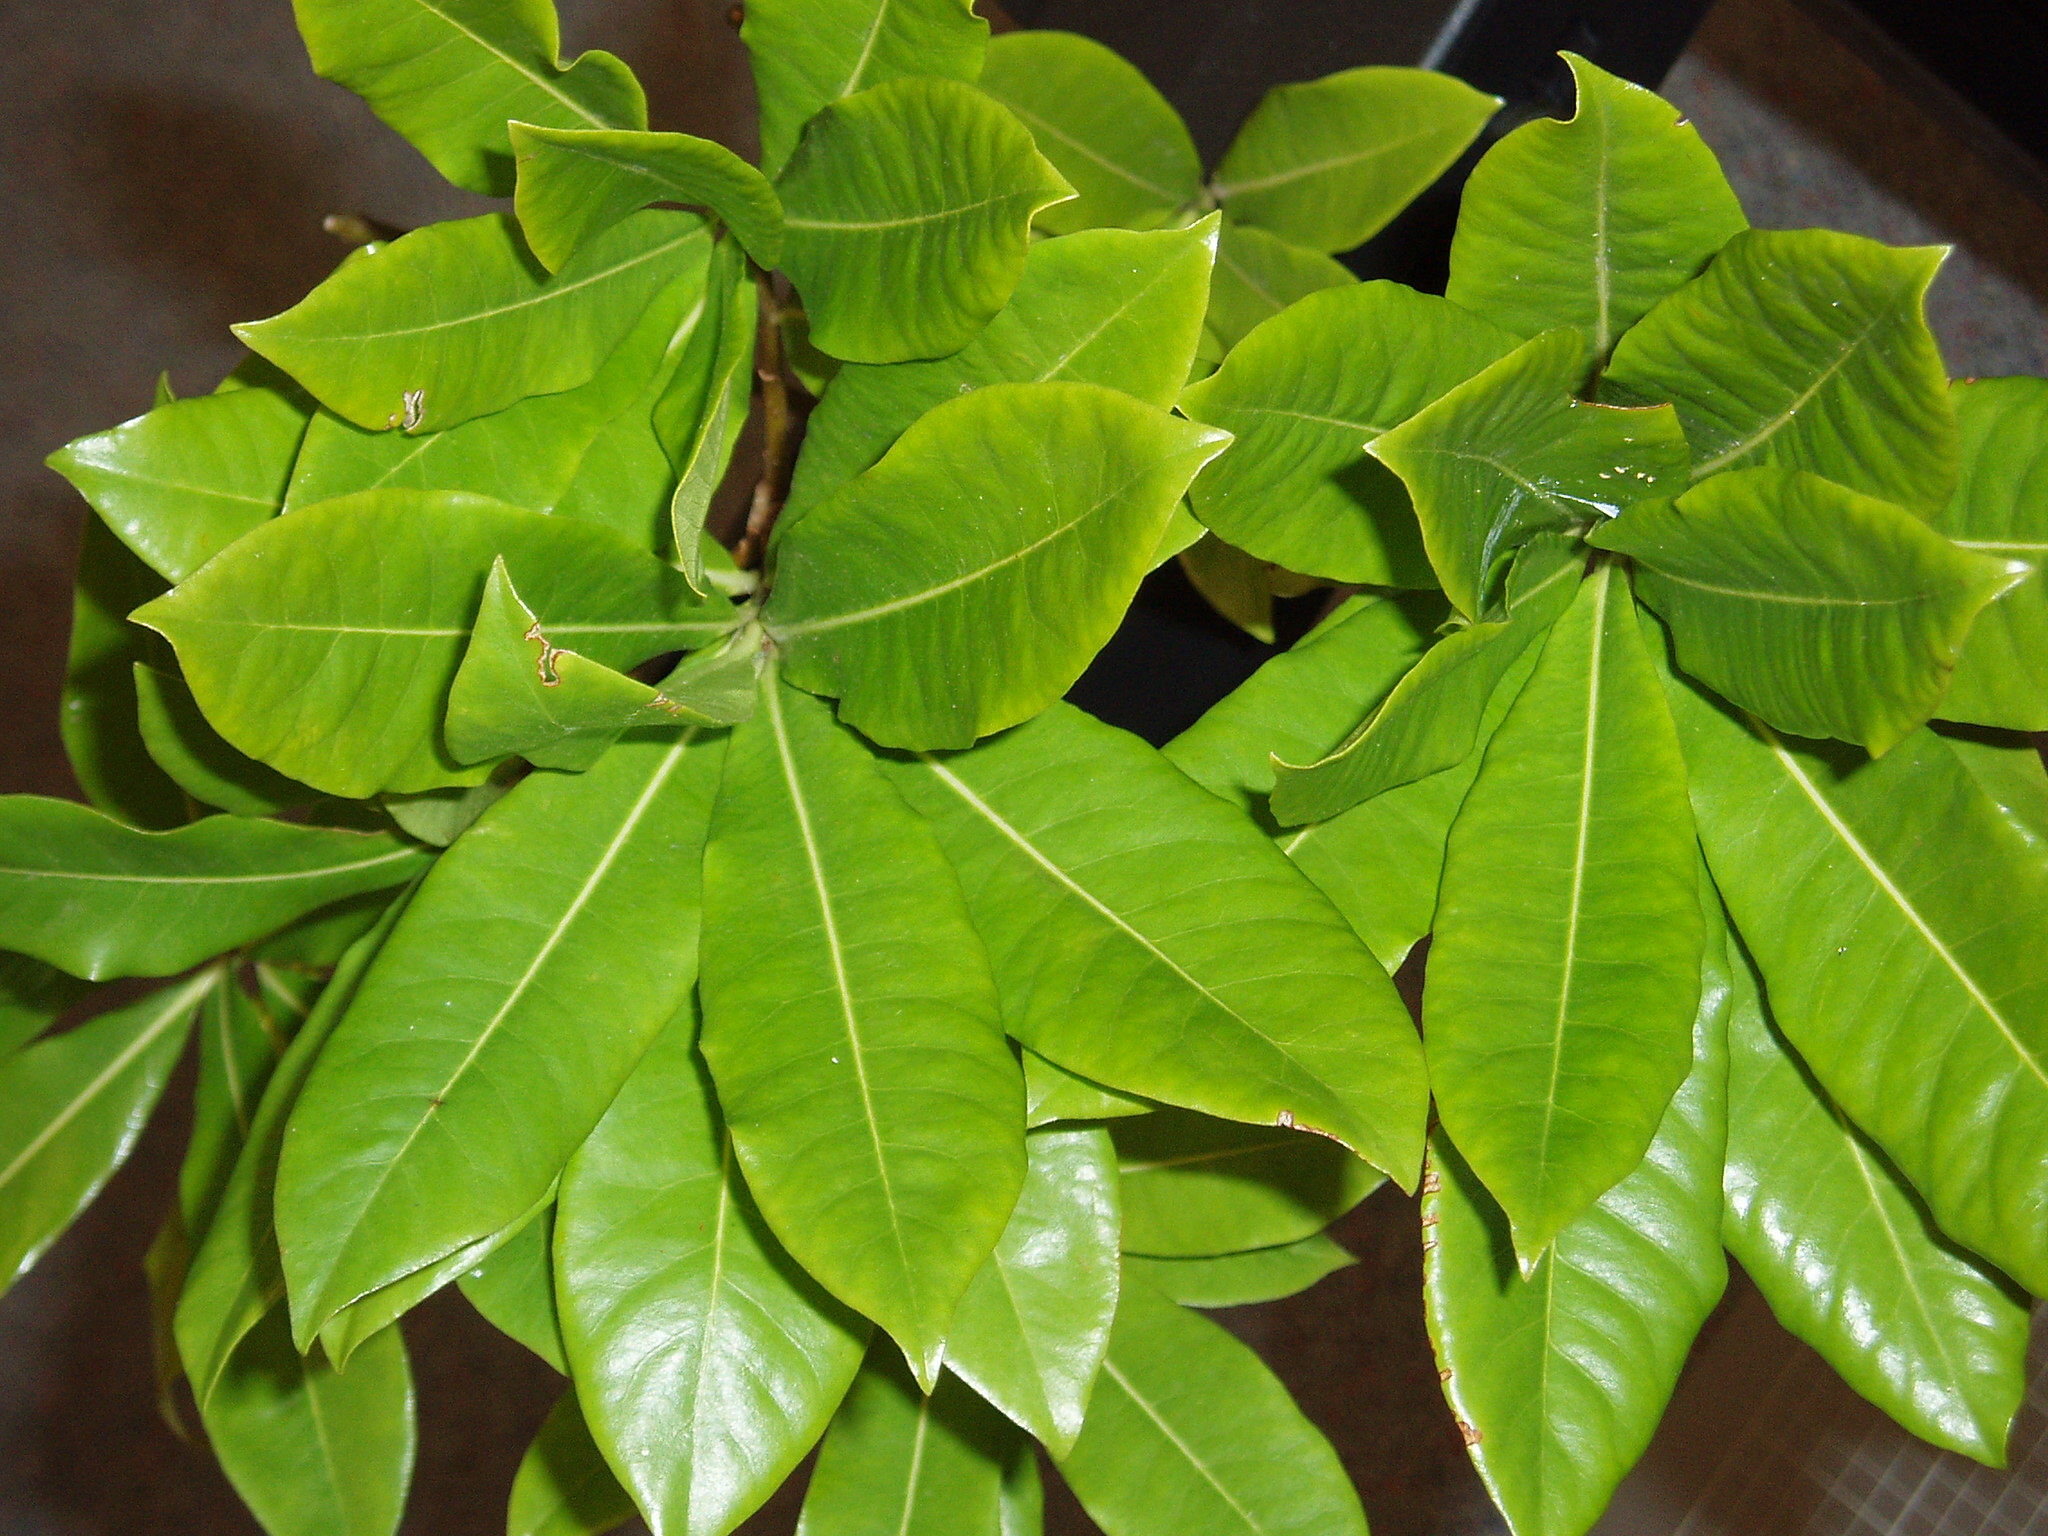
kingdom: Plantae
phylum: Tracheophyta
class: Magnoliopsida
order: Apiales
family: Pittosporaceae
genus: Pittosporum
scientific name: Pittosporum bracteolatum
